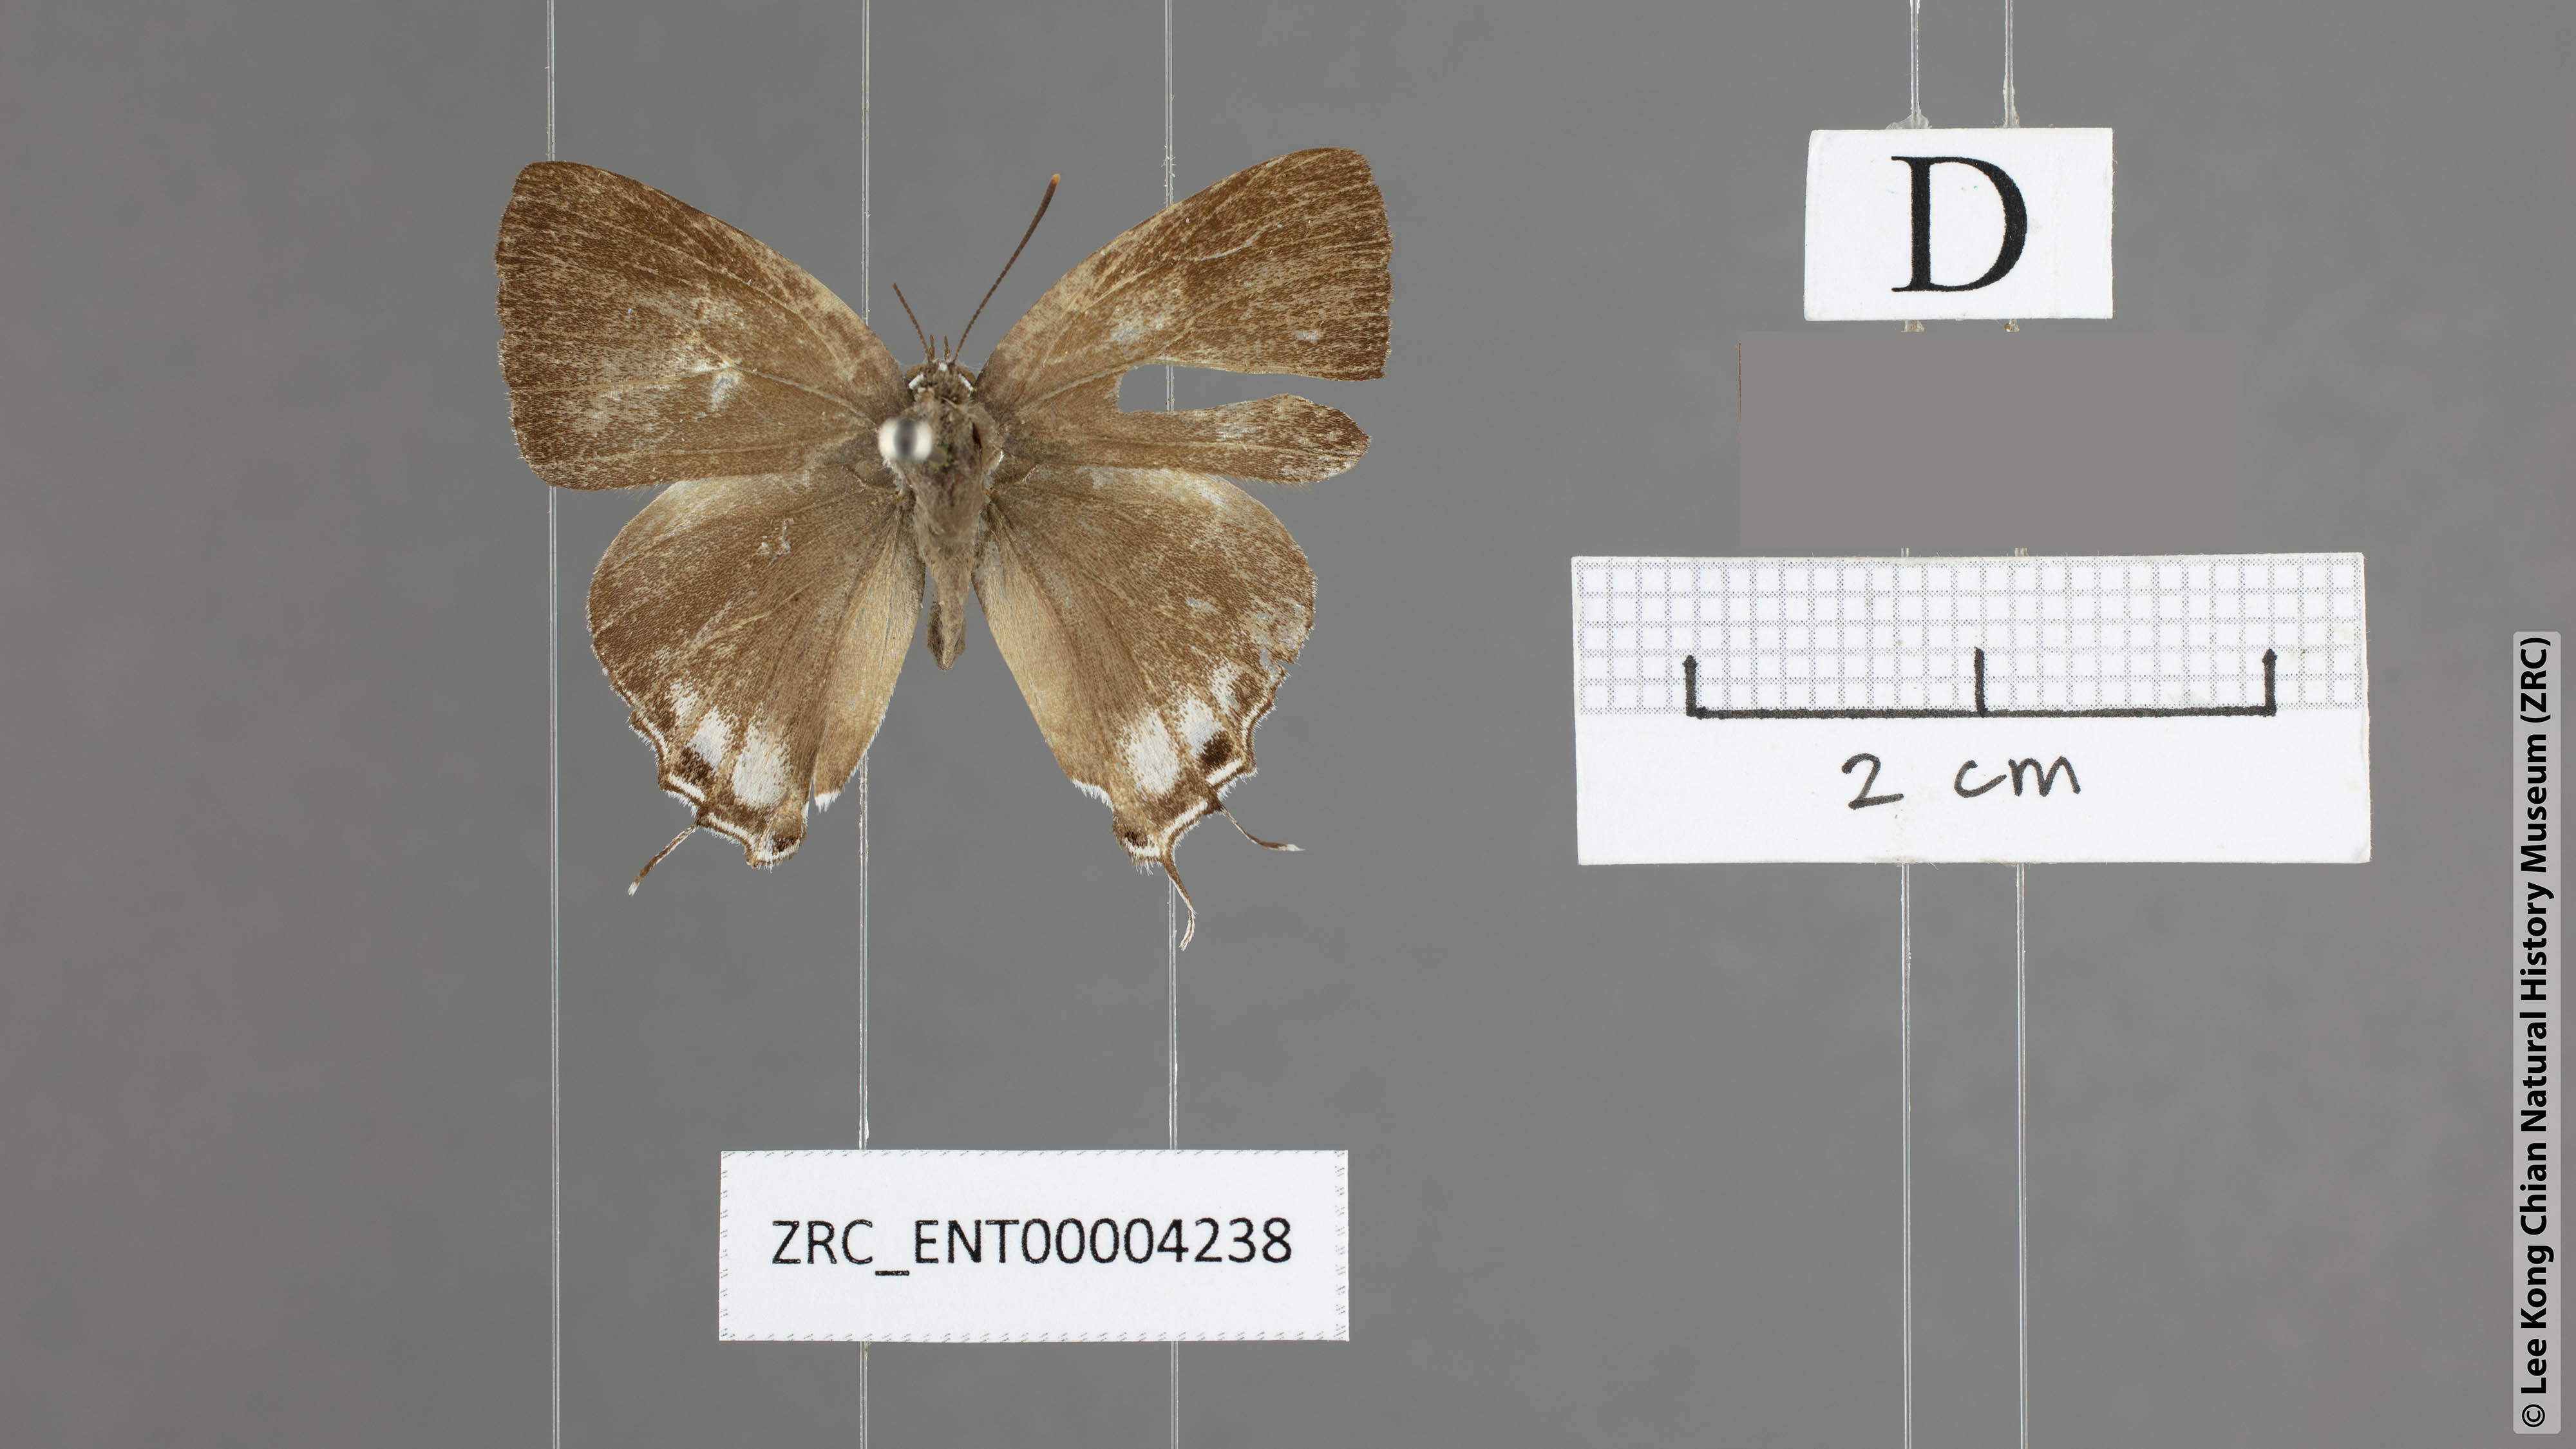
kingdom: Animalia
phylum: Arthropoda
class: Insecta
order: Lepidoptera
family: Hesperiidae
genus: Rachana
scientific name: Rachana jalindra
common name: Banded royal
